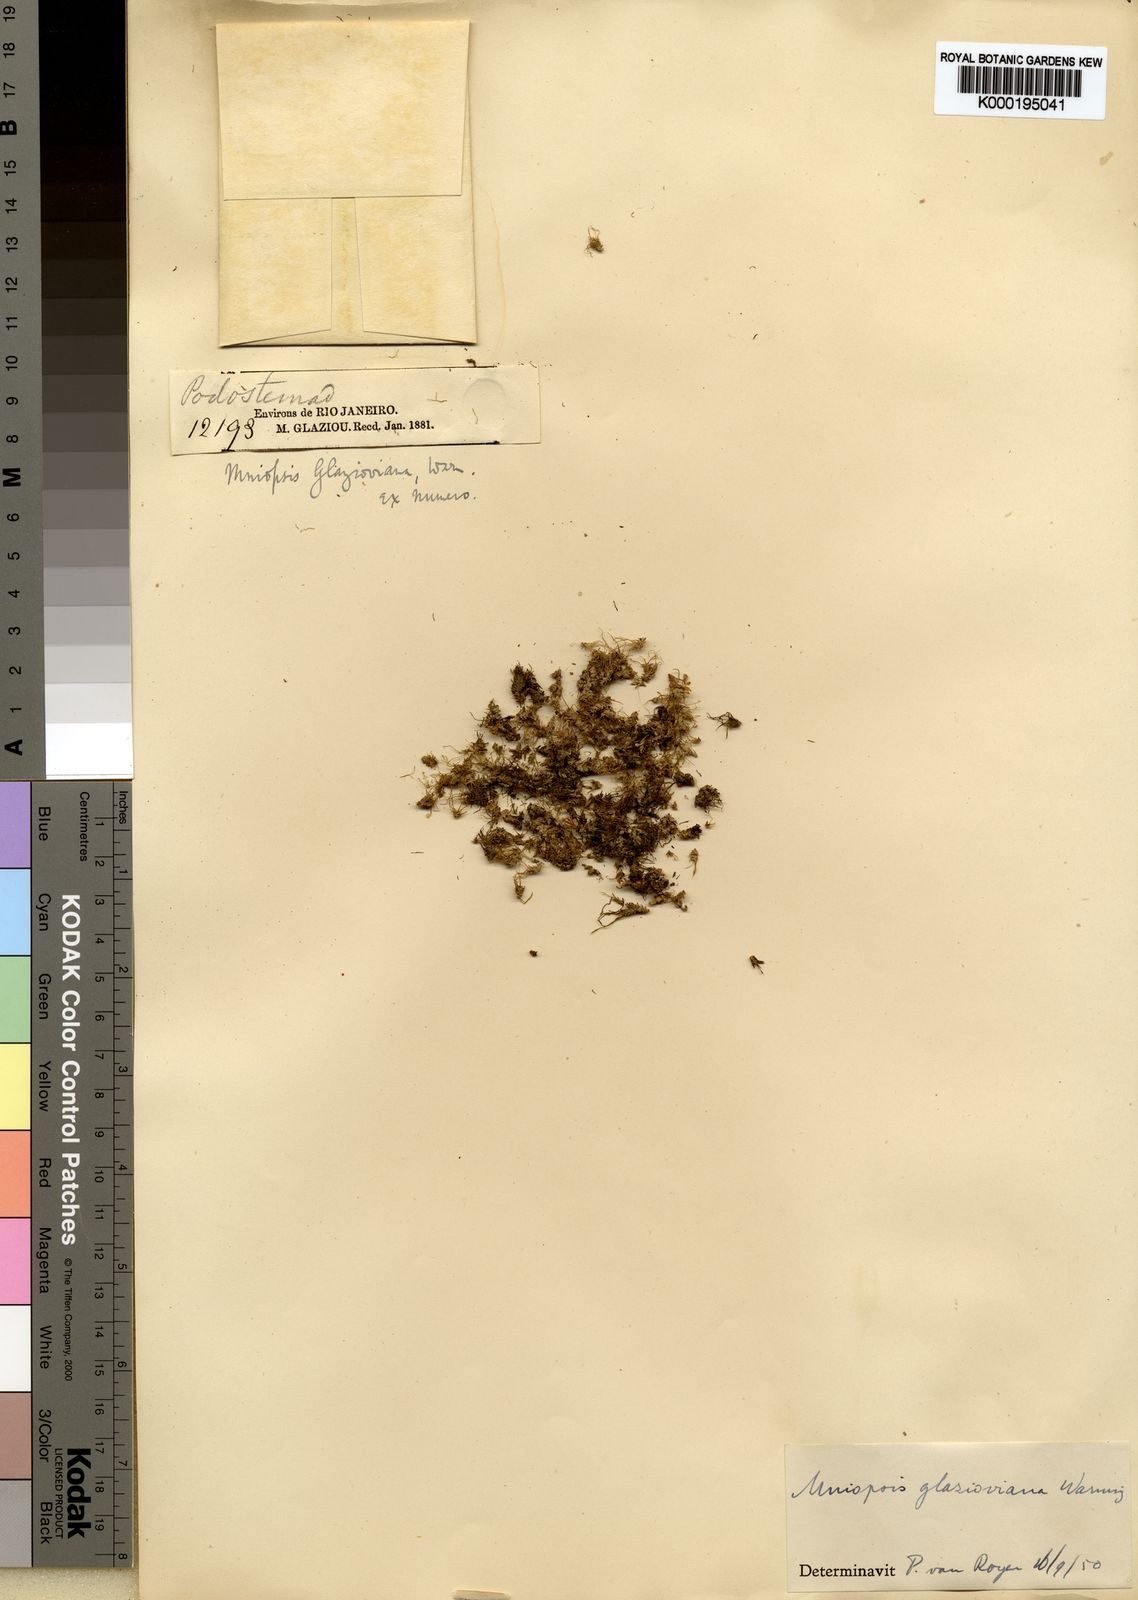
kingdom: Plantae
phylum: Tracheophyta
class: Magnoliopsida
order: Malpighiales
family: Podostemaceae
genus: Podostemum
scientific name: Podostemum ovatum
